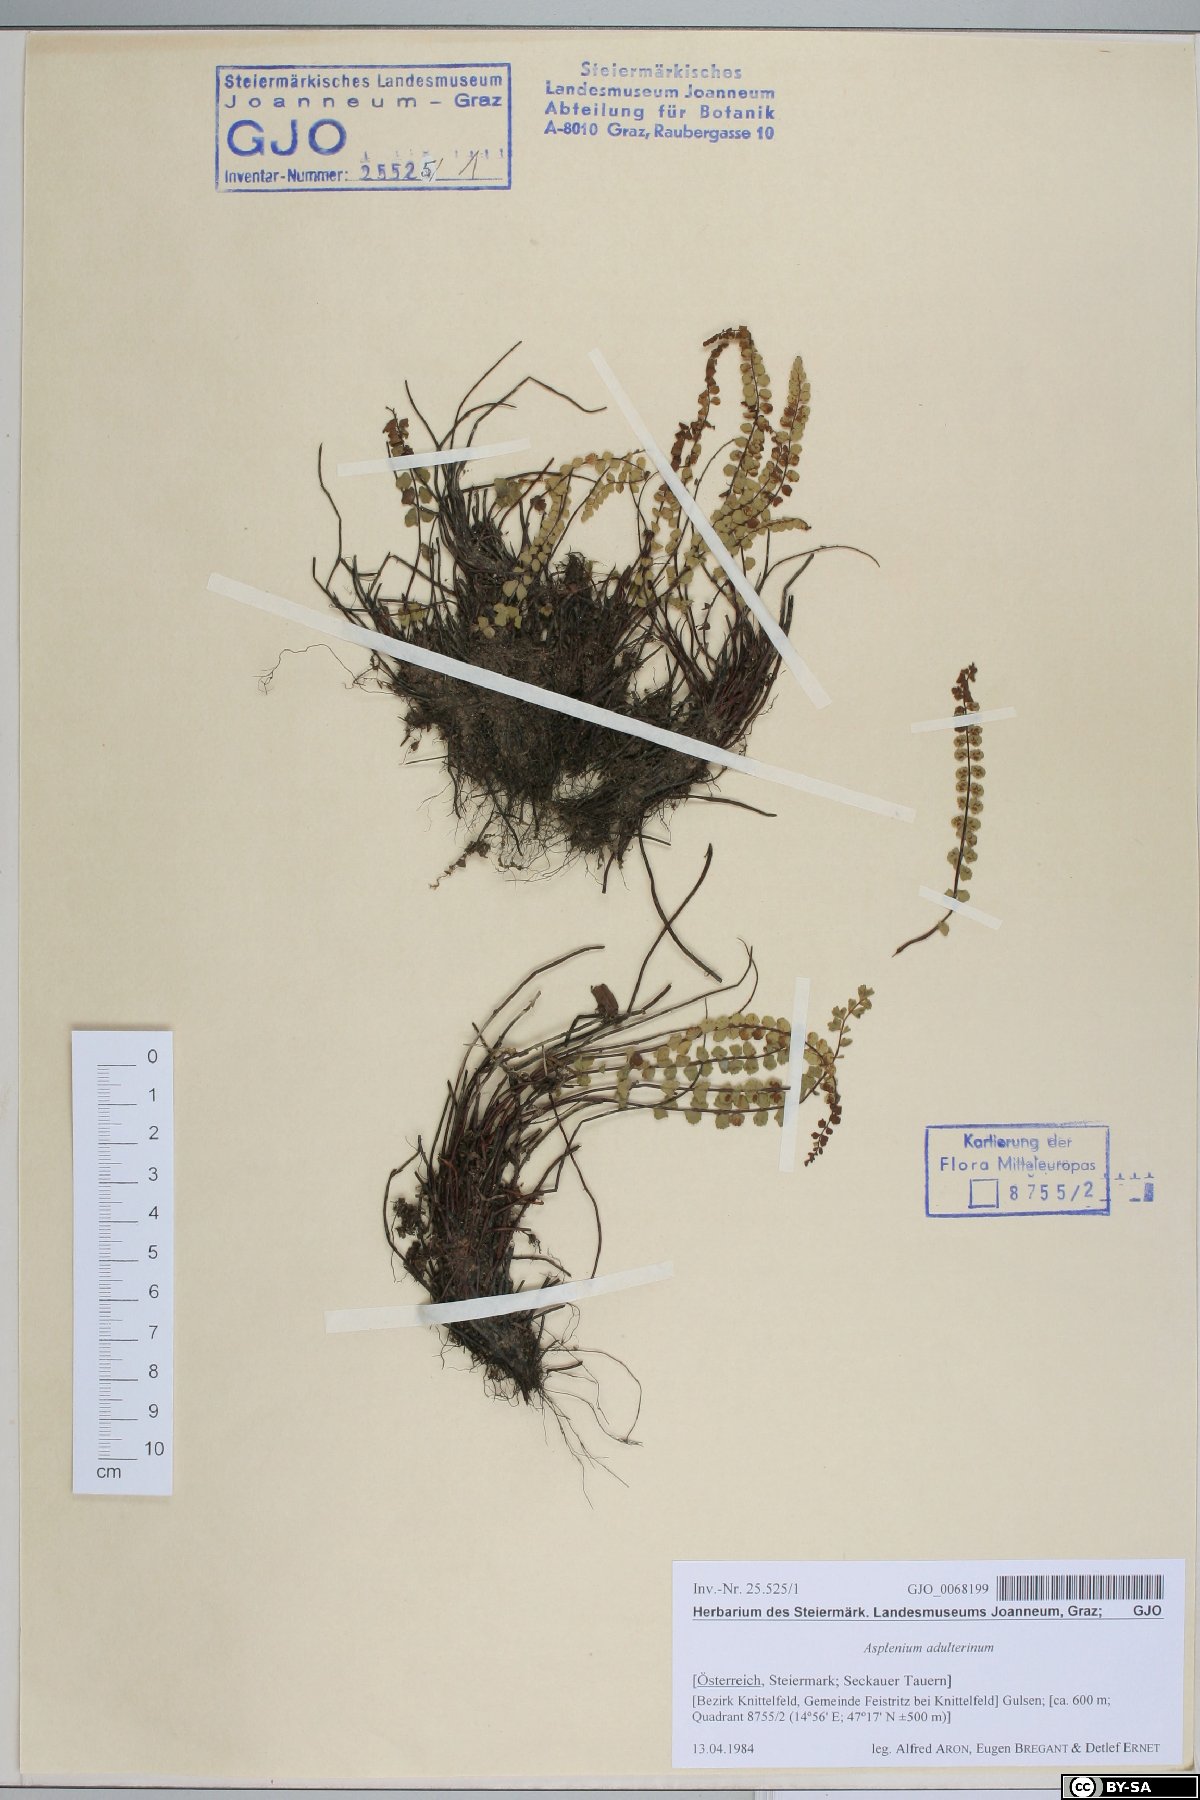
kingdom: Plantae
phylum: Tracheophyta
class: Polypodiopsida
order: Polypodiales
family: Aspleniaceae
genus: Asplenium
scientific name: Asplenium adulterinum
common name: Adulterated spleenwort
